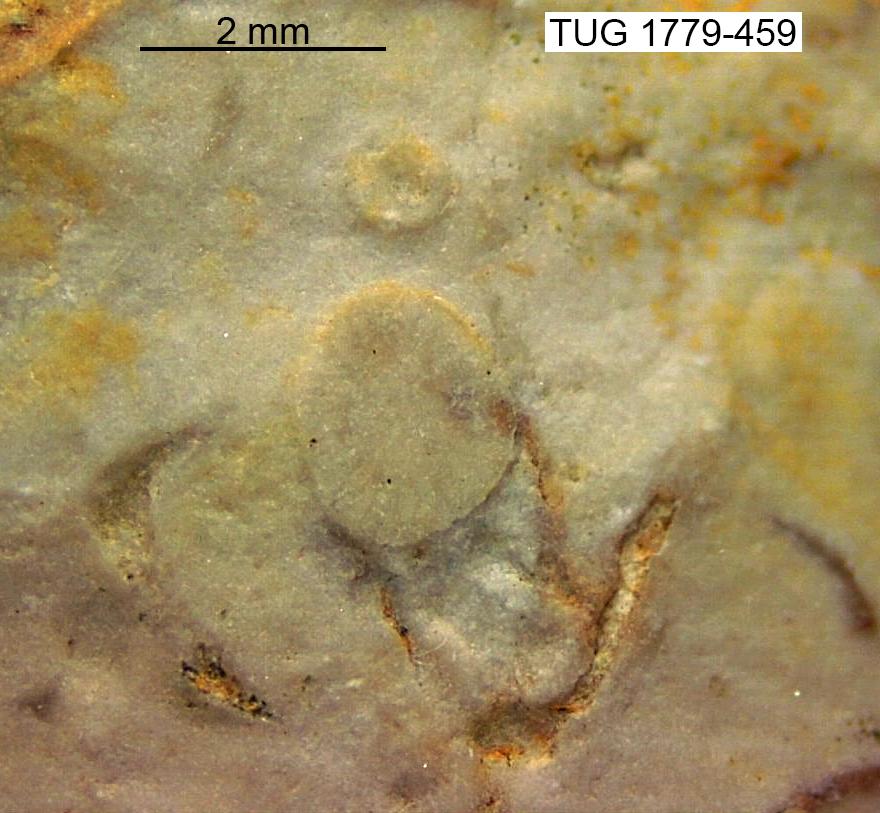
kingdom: Animalia
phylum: Bryozoa
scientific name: Bryozoa
